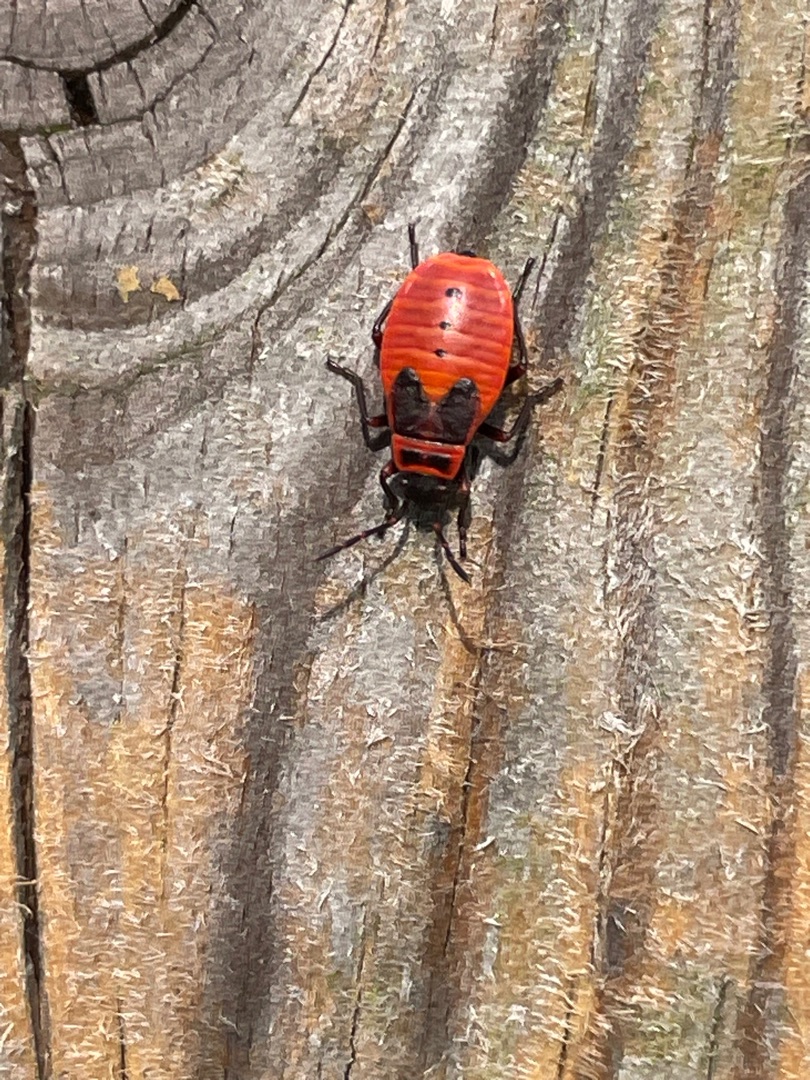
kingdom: Animalia
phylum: Arthropoda
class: Insecta
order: Hemiptera
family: Pyrrhocoridae
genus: Pyrrhocoris
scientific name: Pyrrhocoris apterus
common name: Ildtæge
